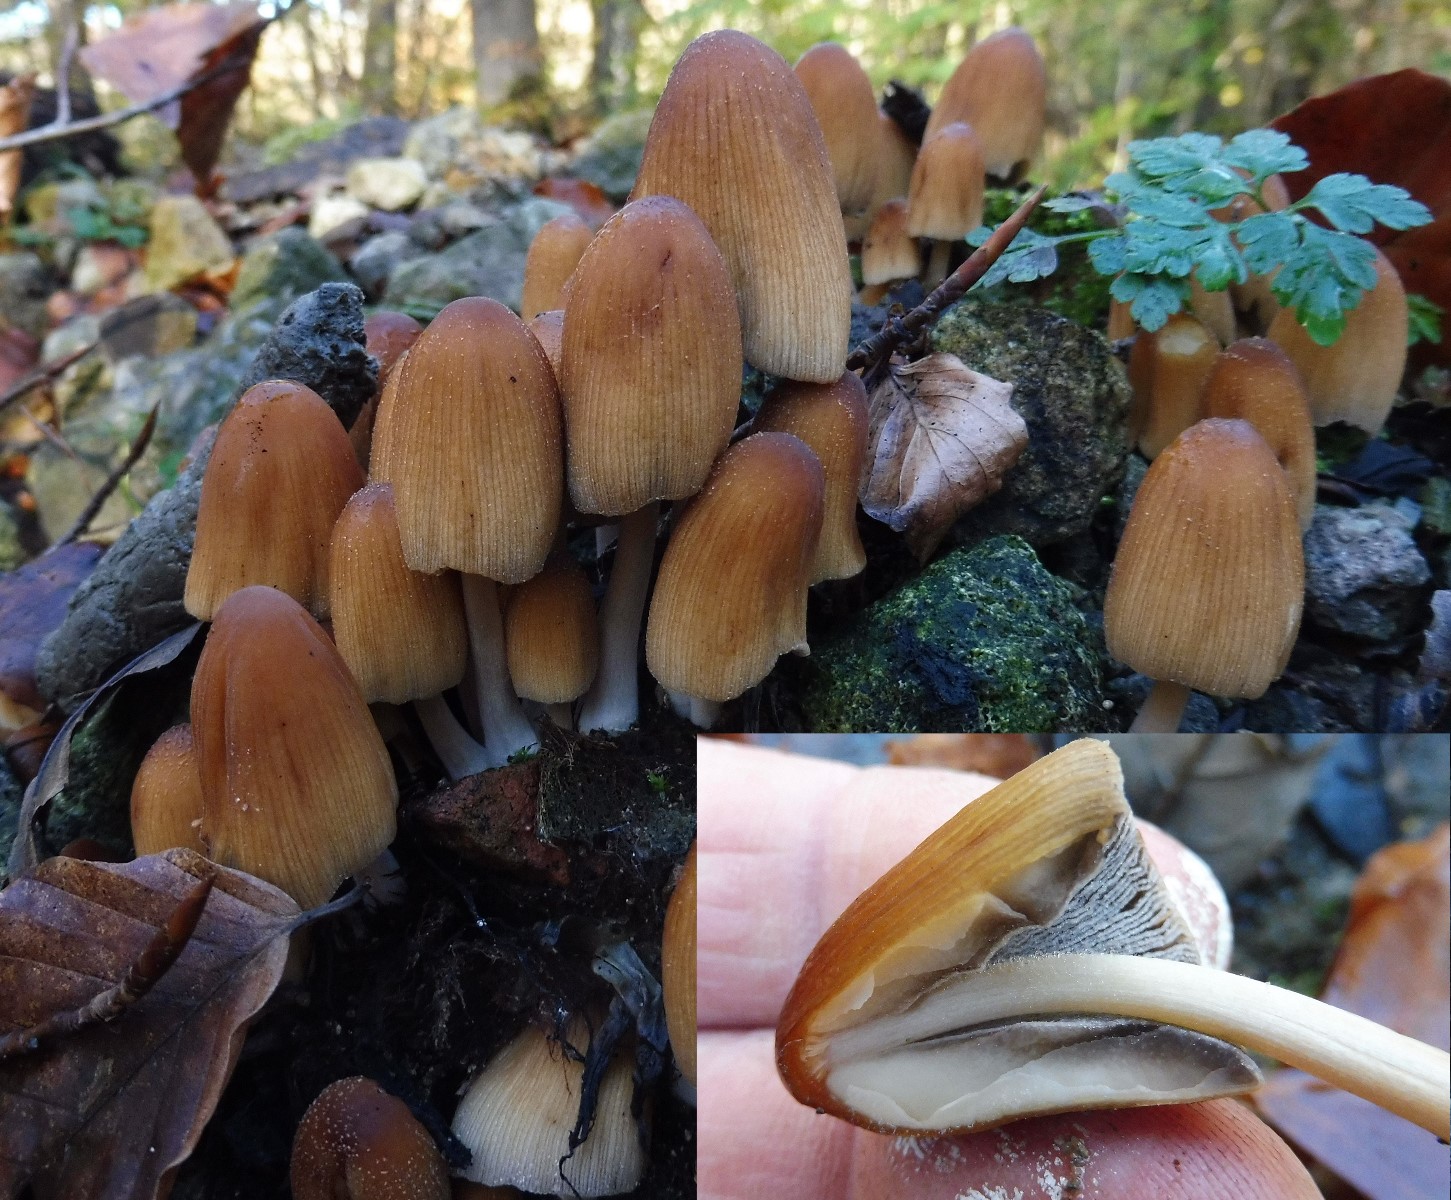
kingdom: Fungi
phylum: Basidiomycota
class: Agaricomycetes
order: Agaricales
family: Psathyrellaceae
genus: Coprinellus
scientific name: Coprinellus micaceus
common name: glimmer-blækhat
